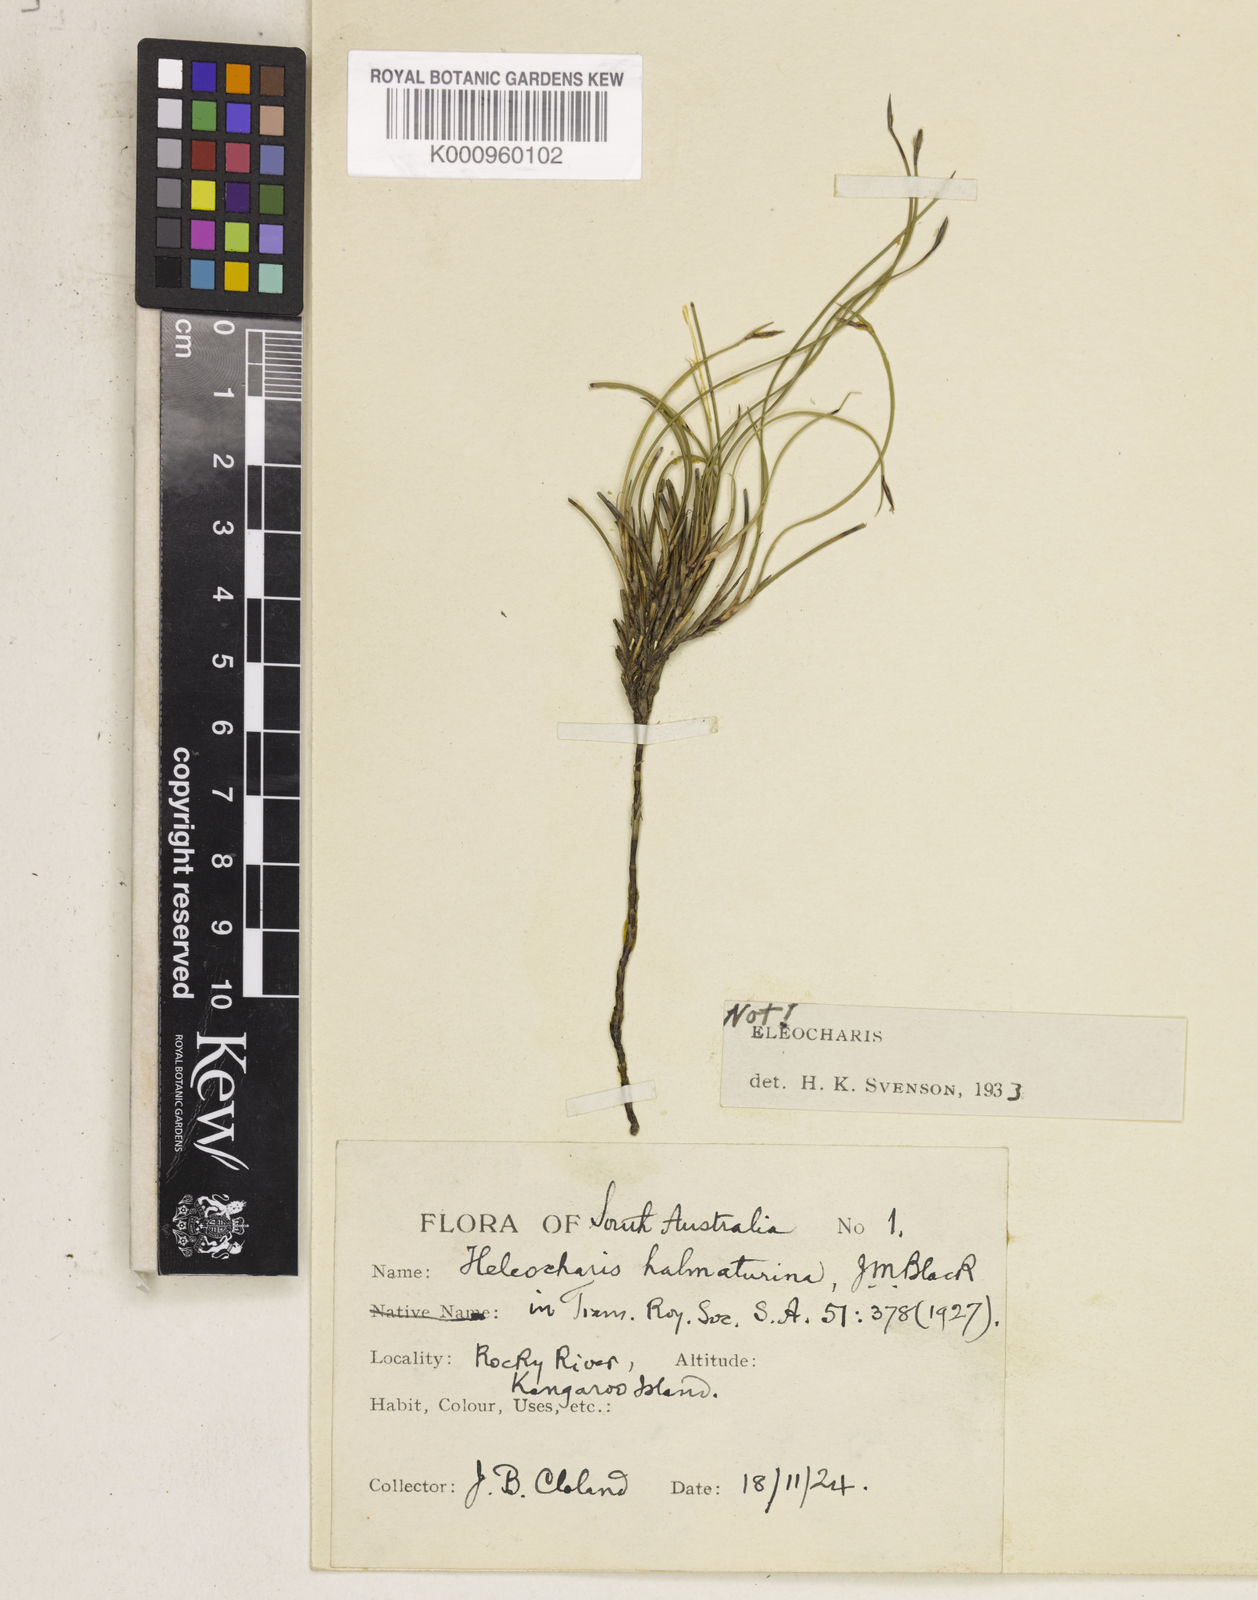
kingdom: Plantae
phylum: Tracheophyta
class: Liliopsida
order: Poales
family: Cyperaceae
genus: Tetraria
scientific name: Tetraria capillaris
